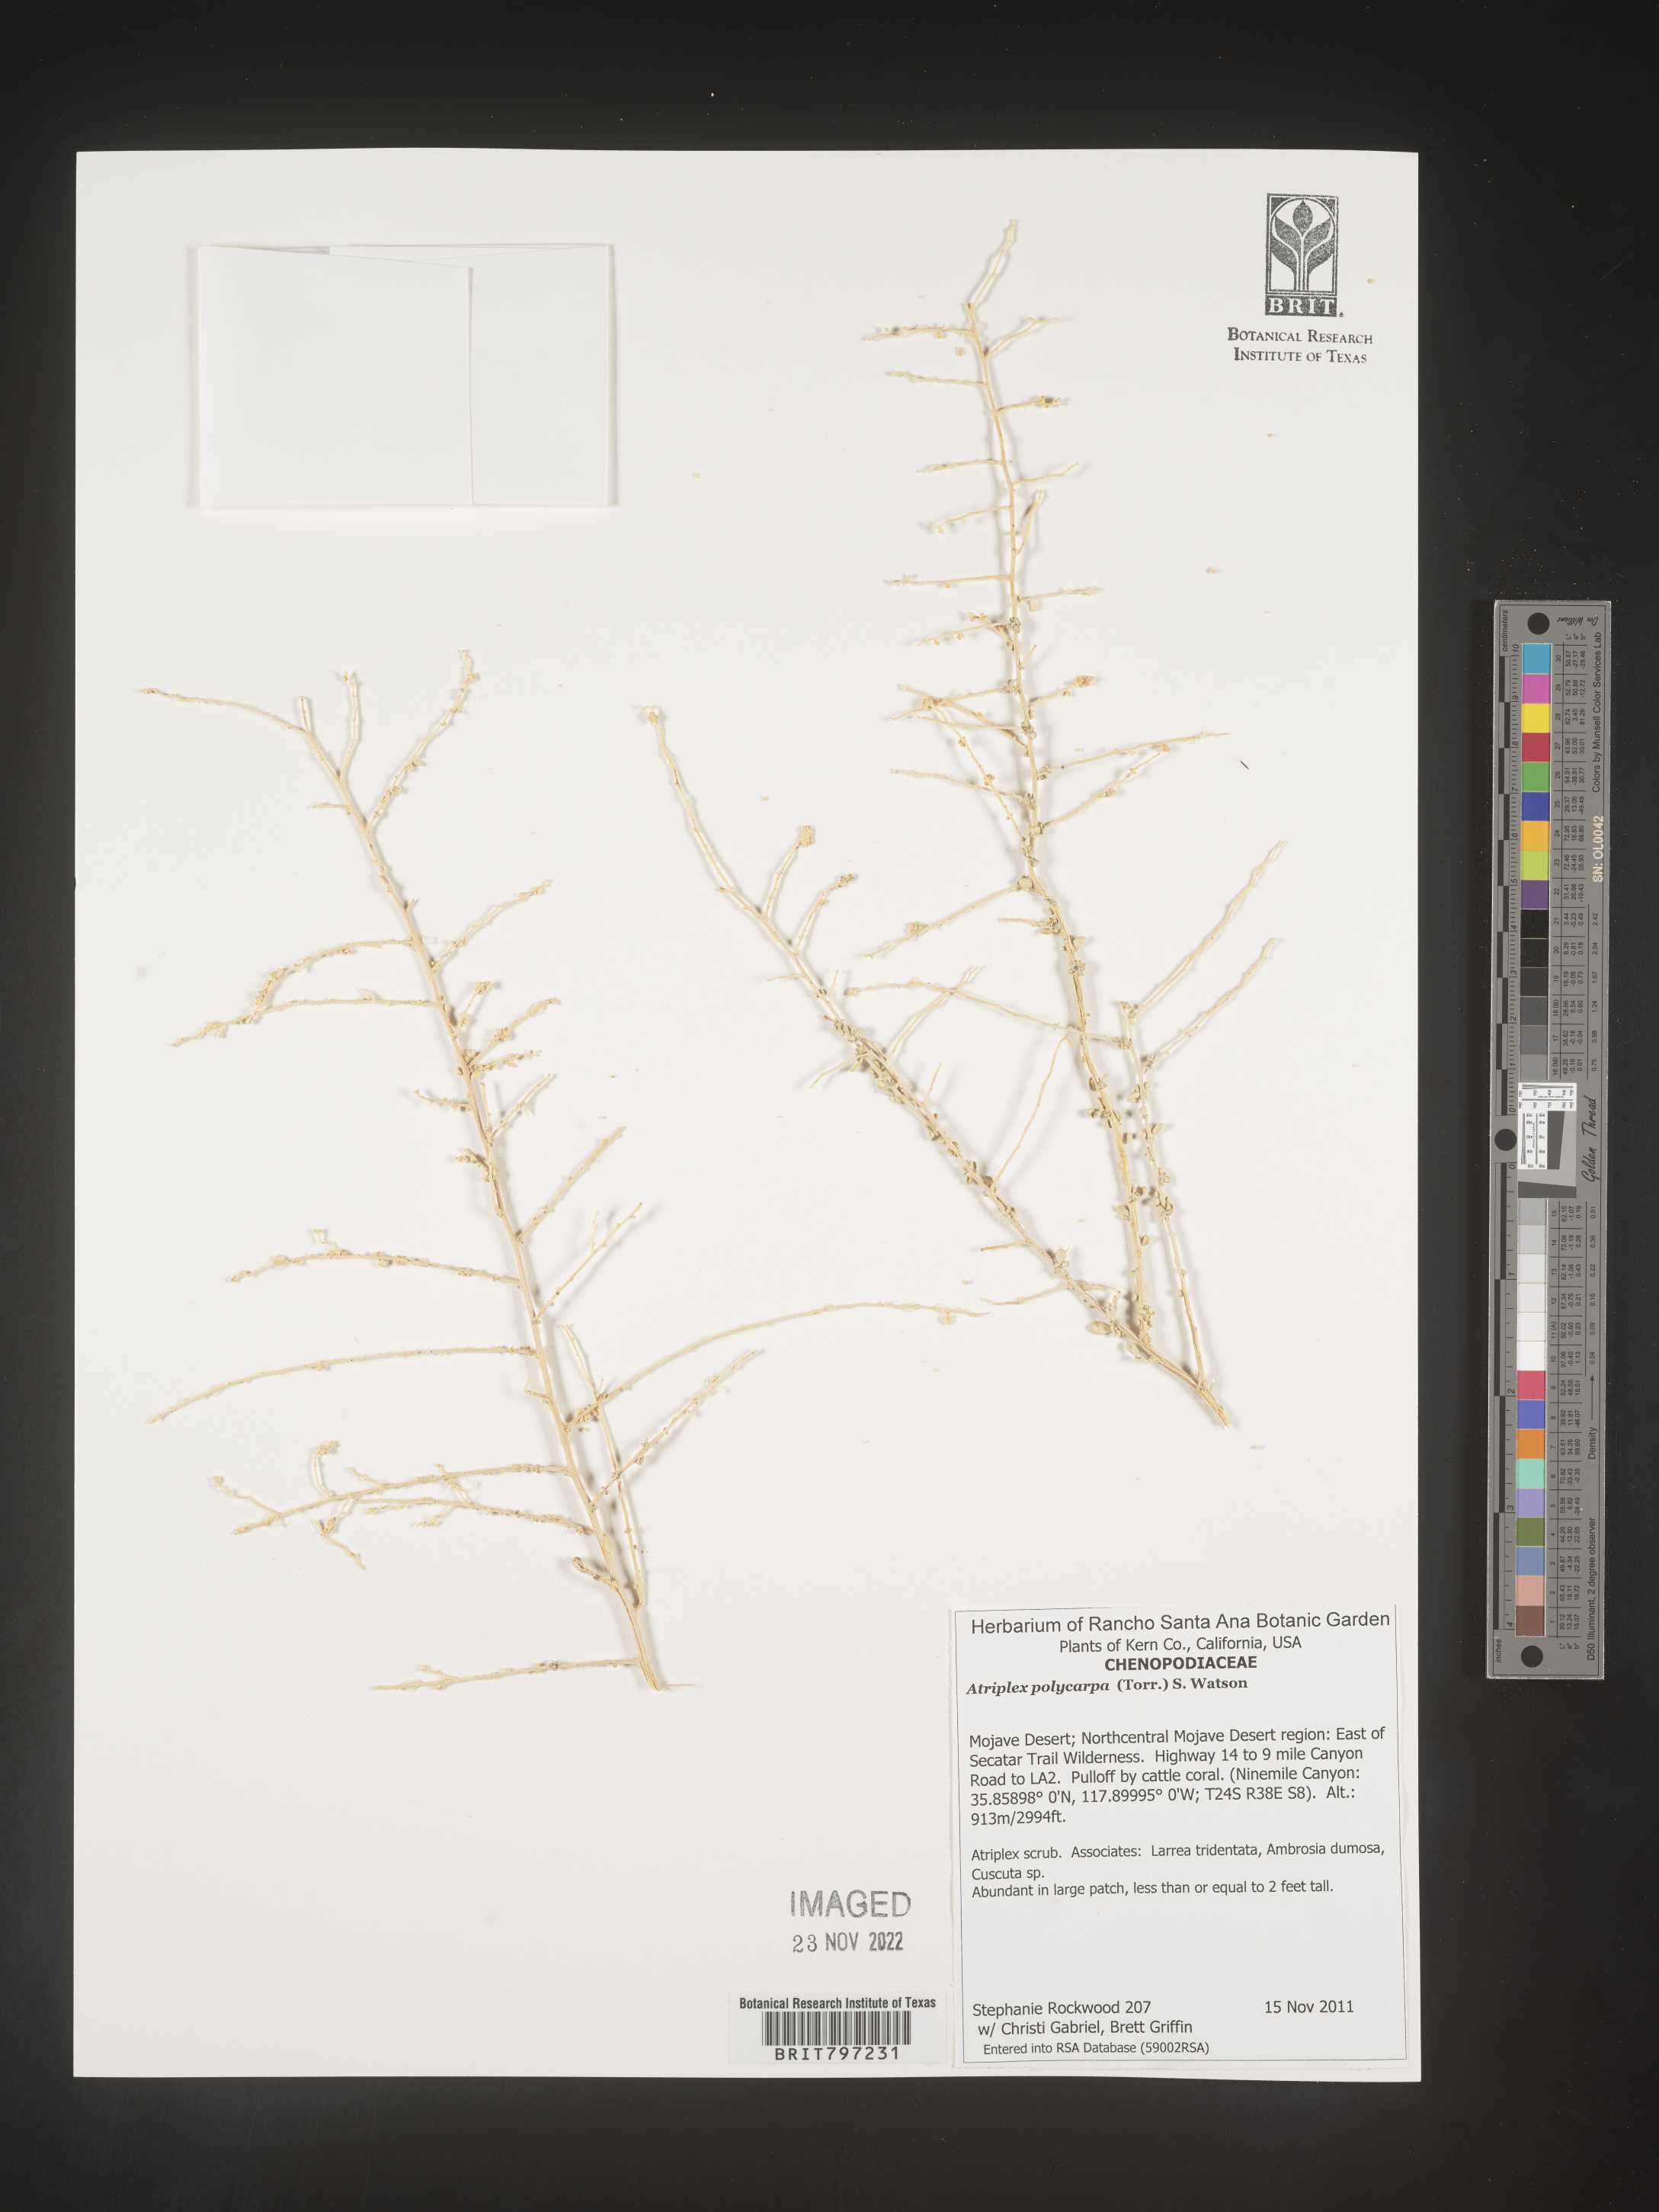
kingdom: Plantae
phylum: Tracheophyta
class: Magnoliopsida
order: Caryophyllales
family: Amaranthaceae
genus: Atriplex
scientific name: Atriplex polycarpa
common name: Desert saltbush
